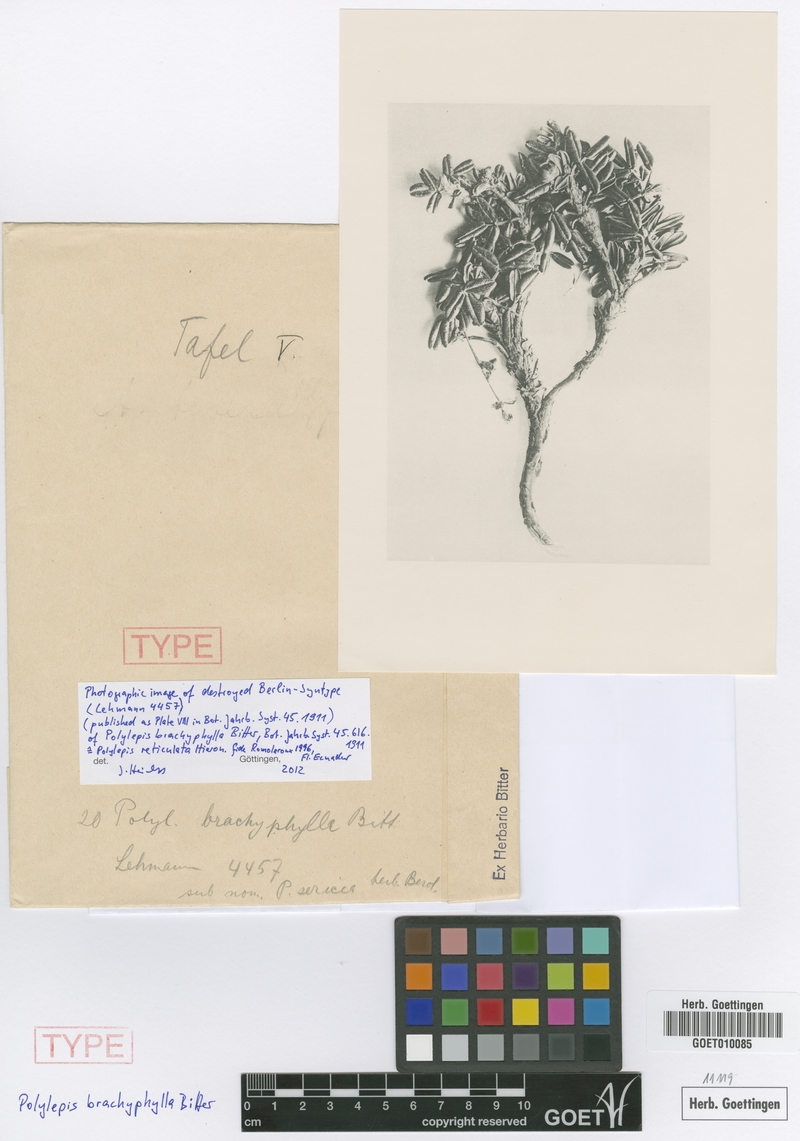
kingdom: Plantae
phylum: Tracheophyta
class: Magnoliopsida
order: Rosales
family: Rosaceae
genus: Polylepis
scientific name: Polylepis reticulata
